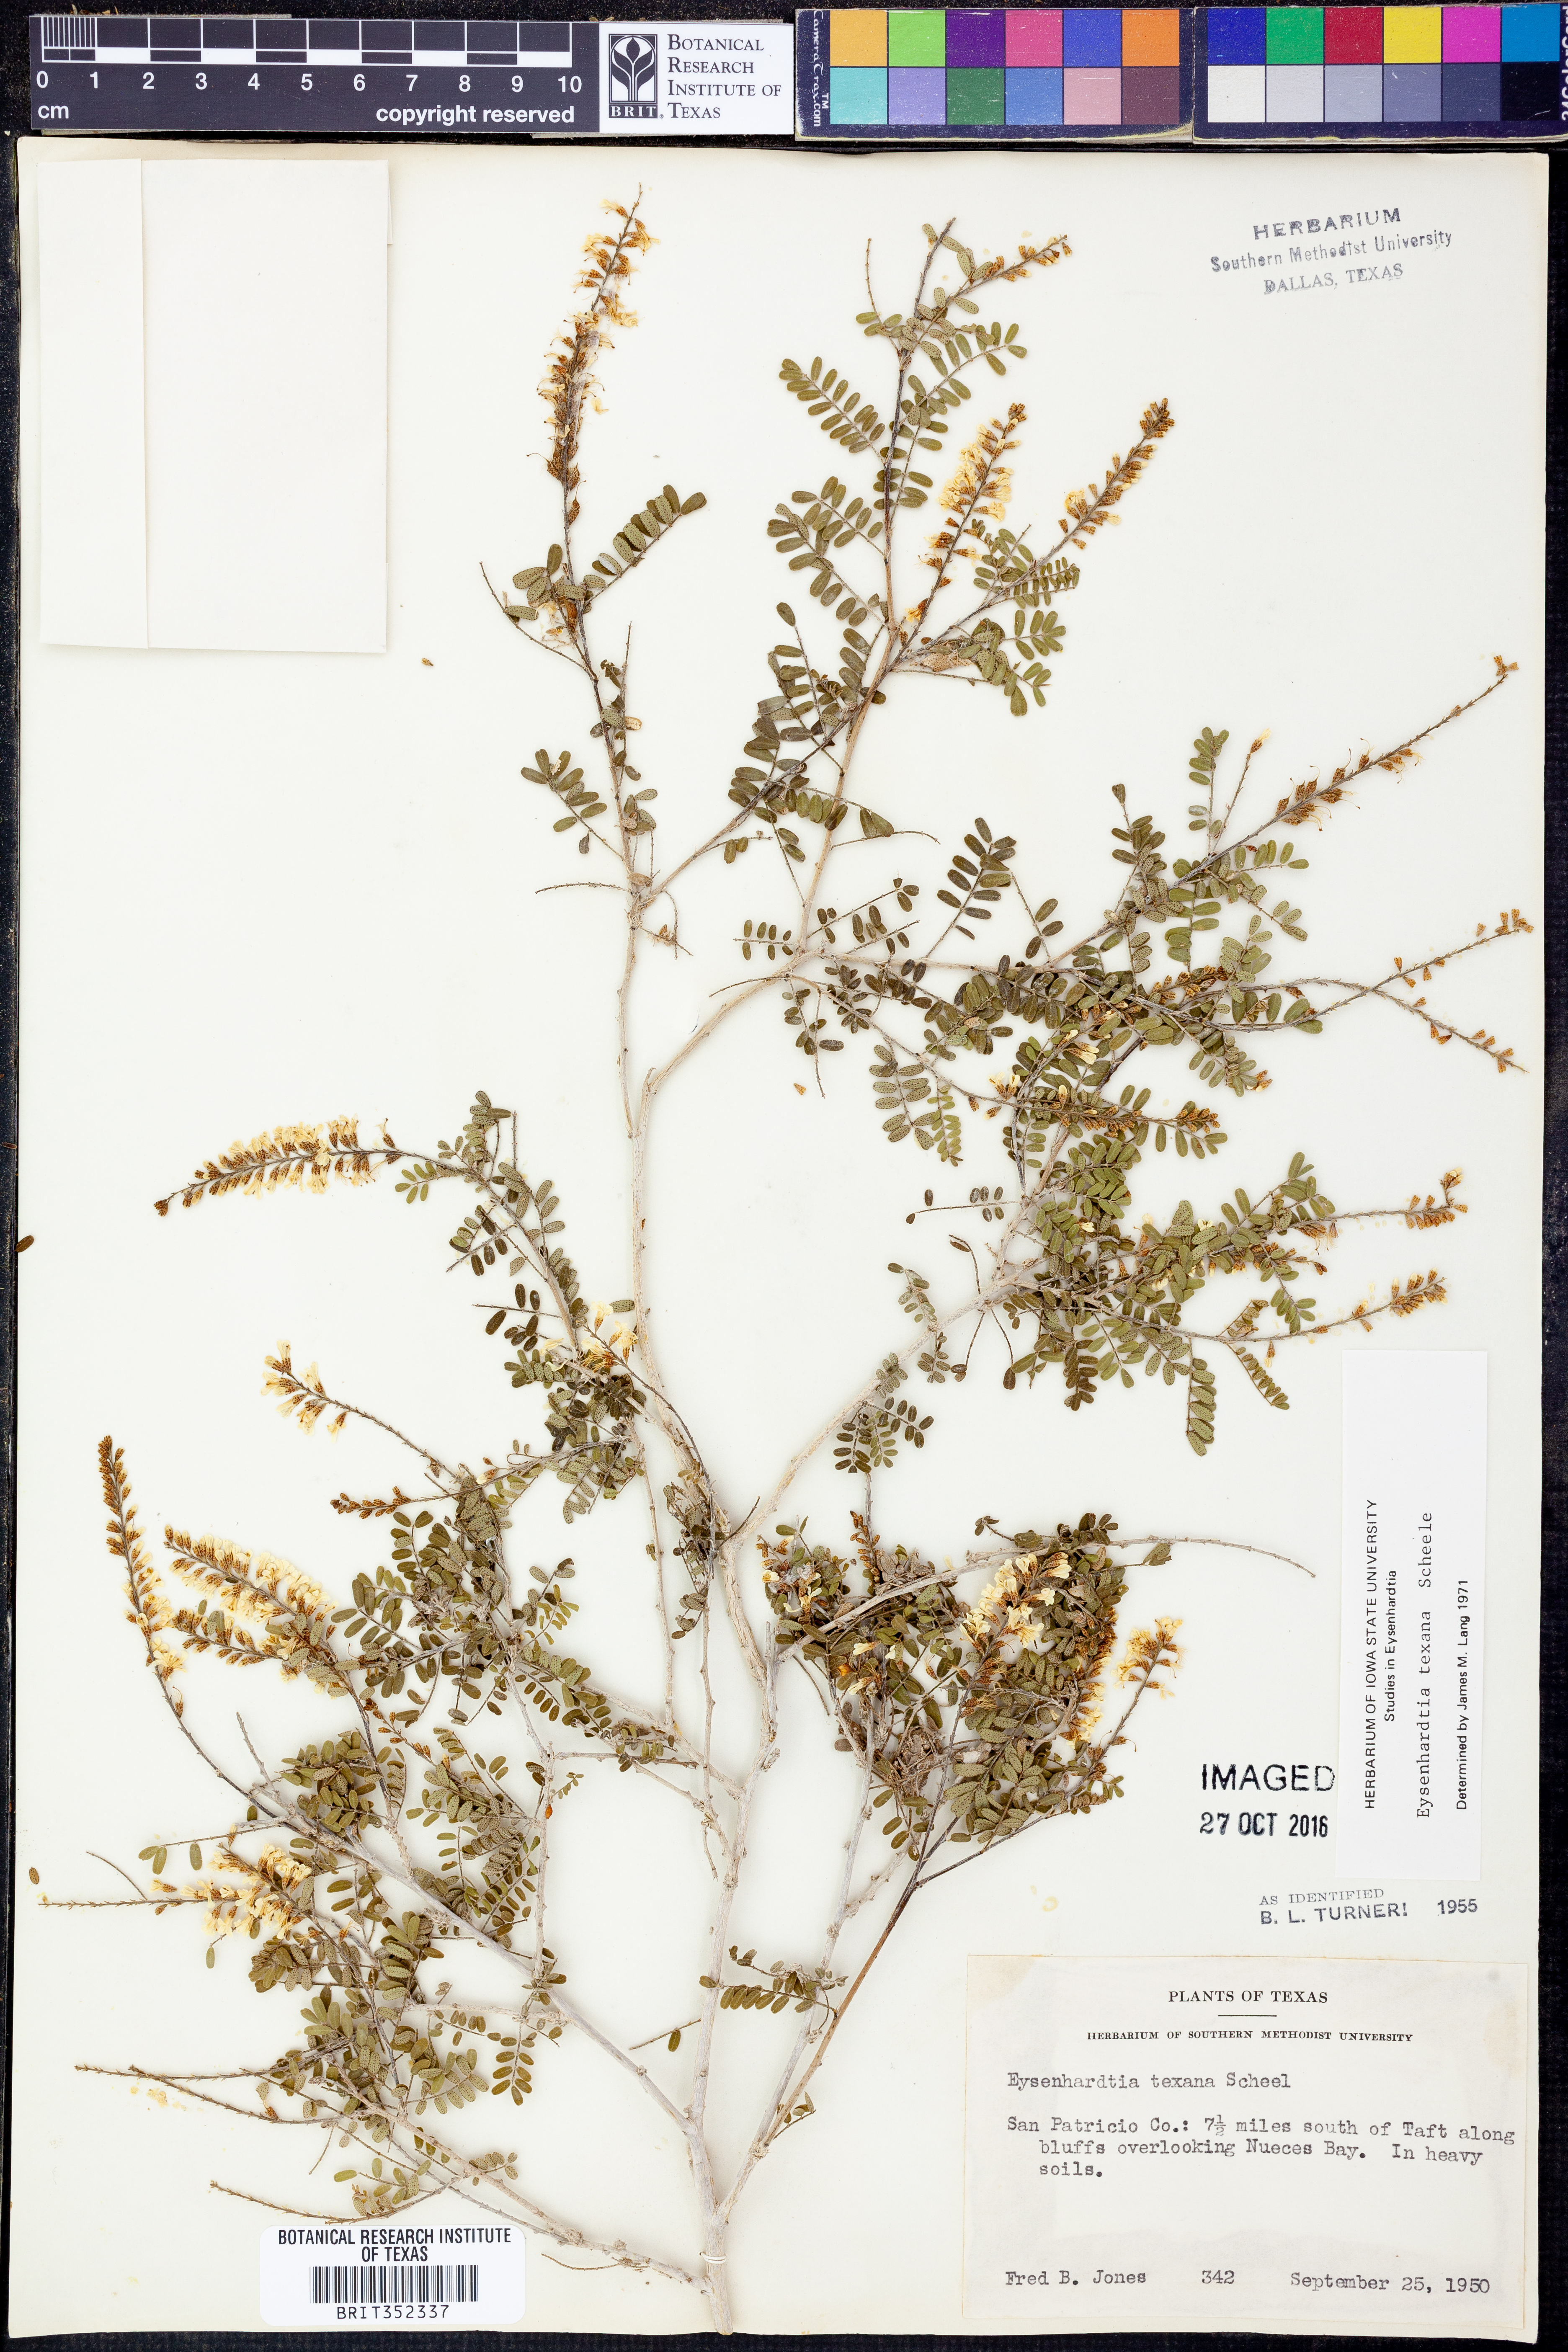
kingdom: Plantae
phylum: Tracheophyta
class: Magnoliopsida
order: Fabales
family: Fabaceae
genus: Eysenhardtia
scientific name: Eysenhardtia texana
